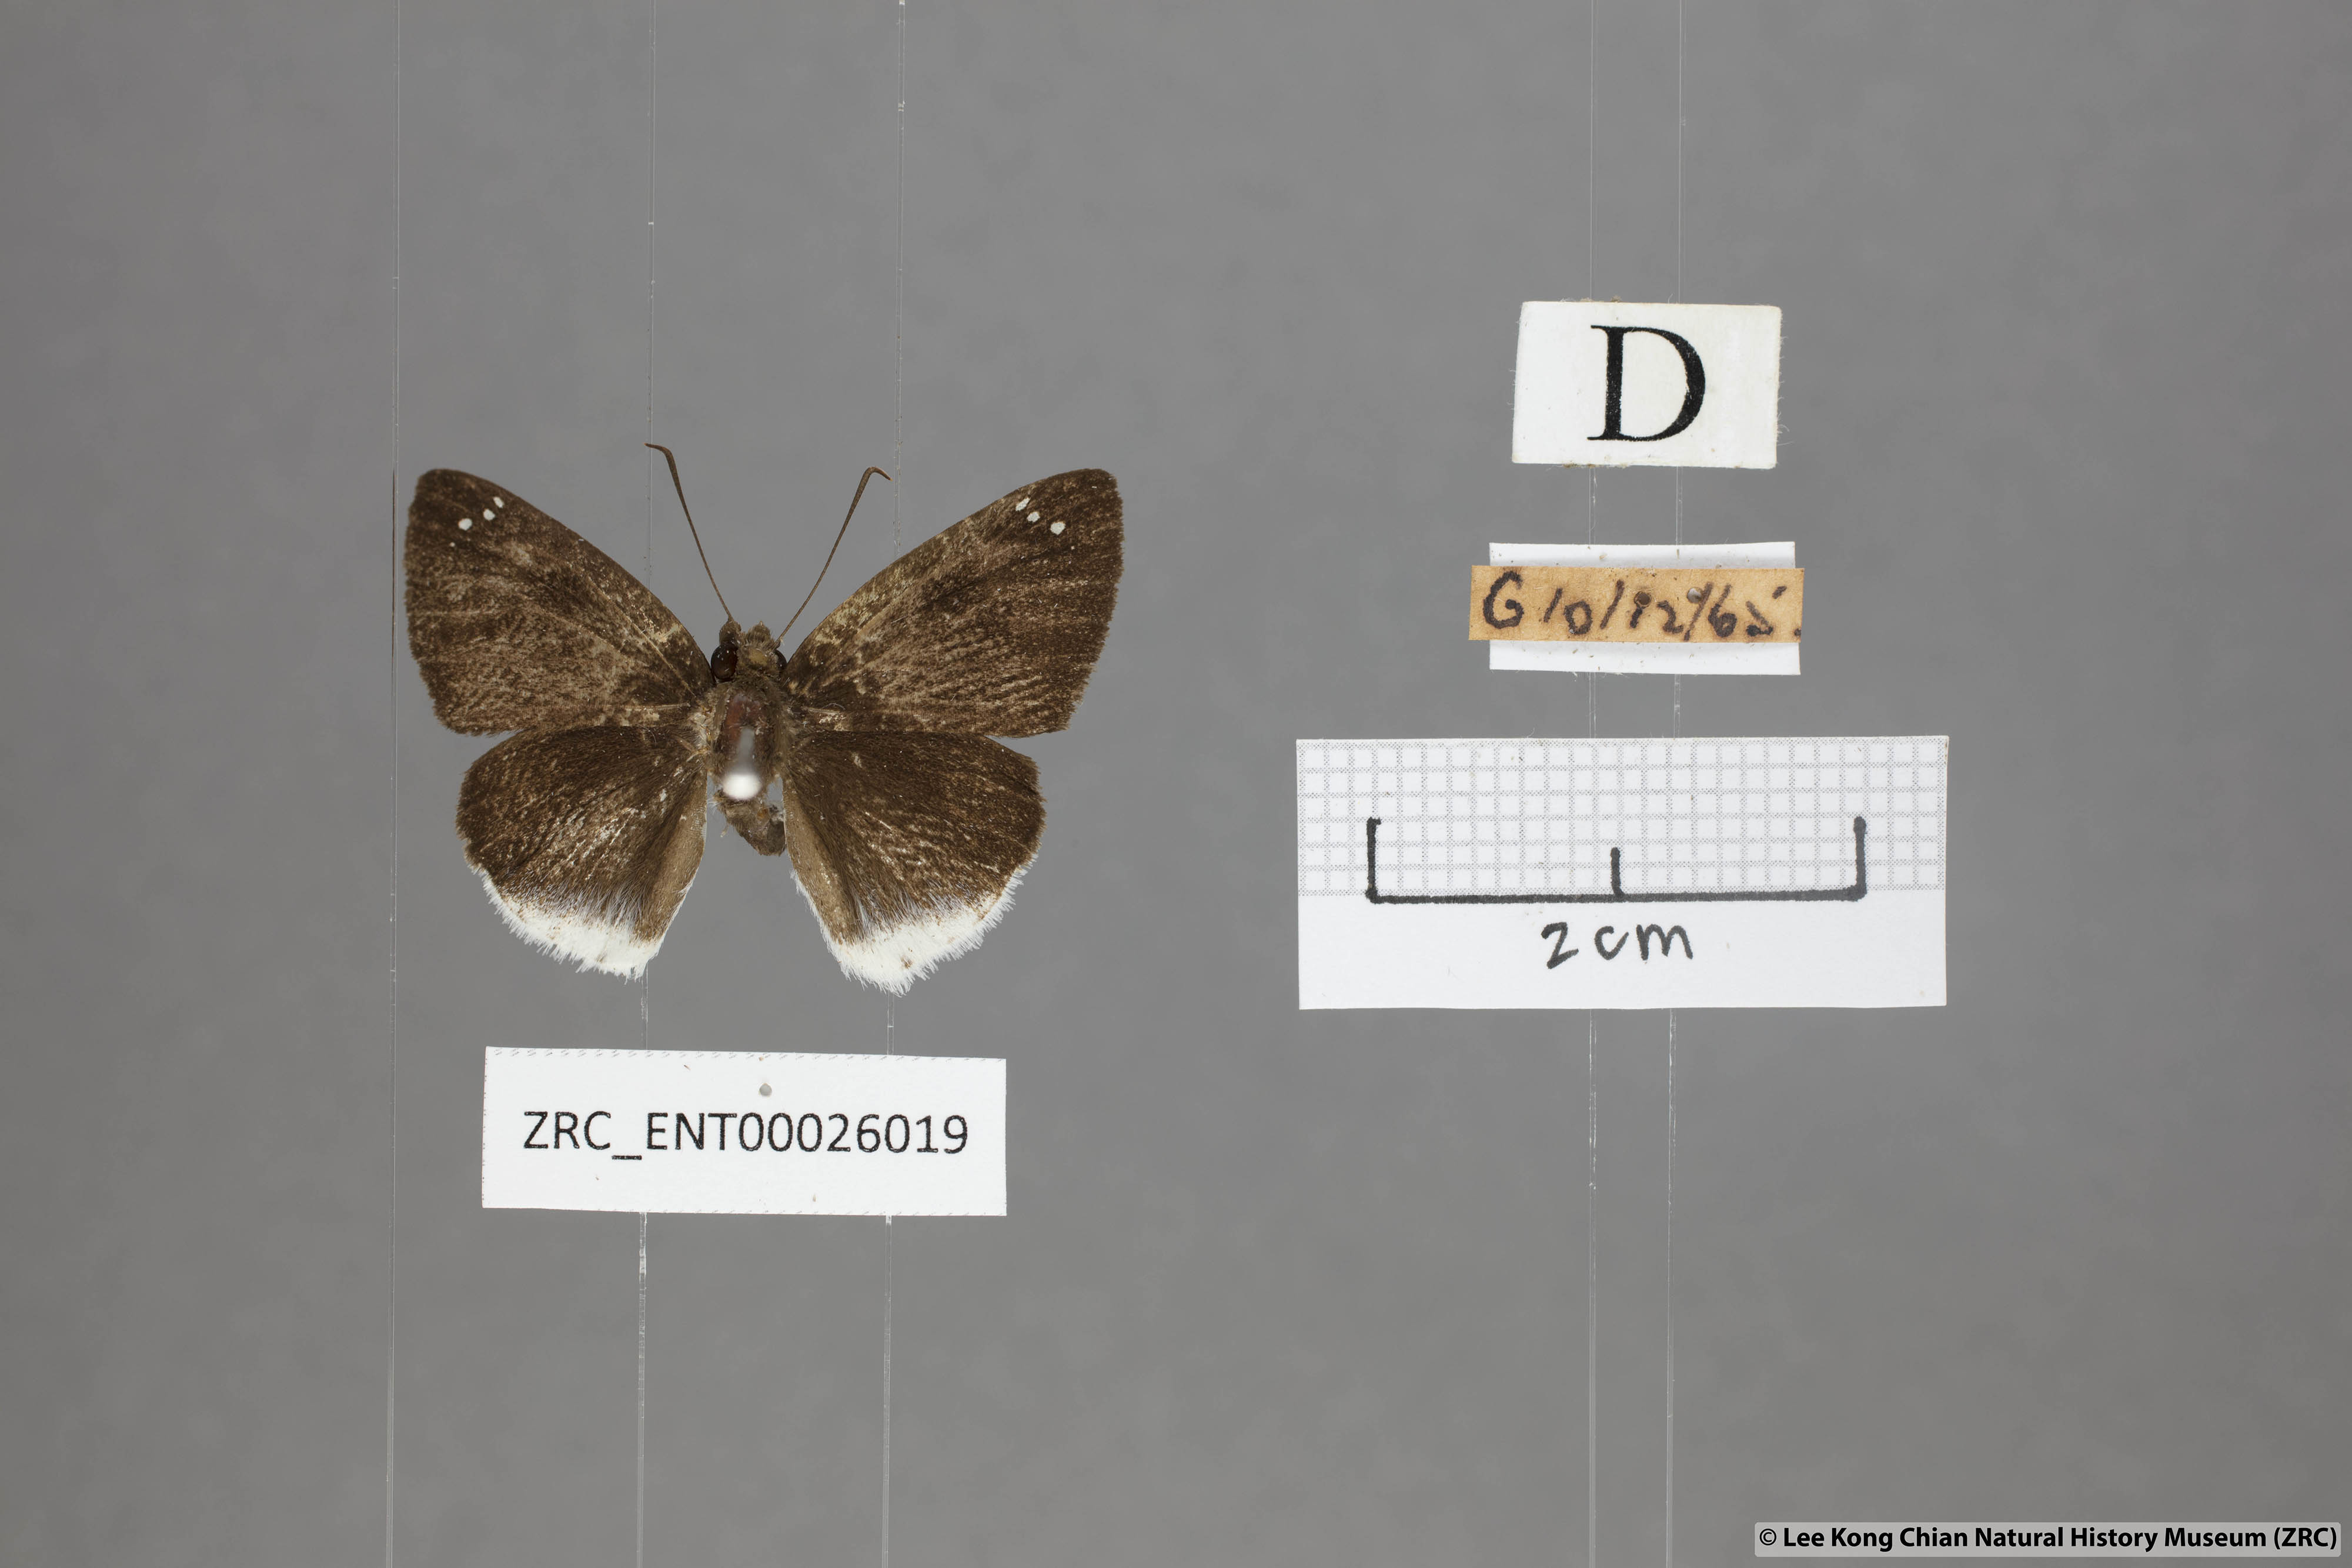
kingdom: Animalia
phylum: Arthropoda
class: Insecta
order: Lepidoptera
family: Hesperiidae
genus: Tagiades
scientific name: Tagiades lavata
